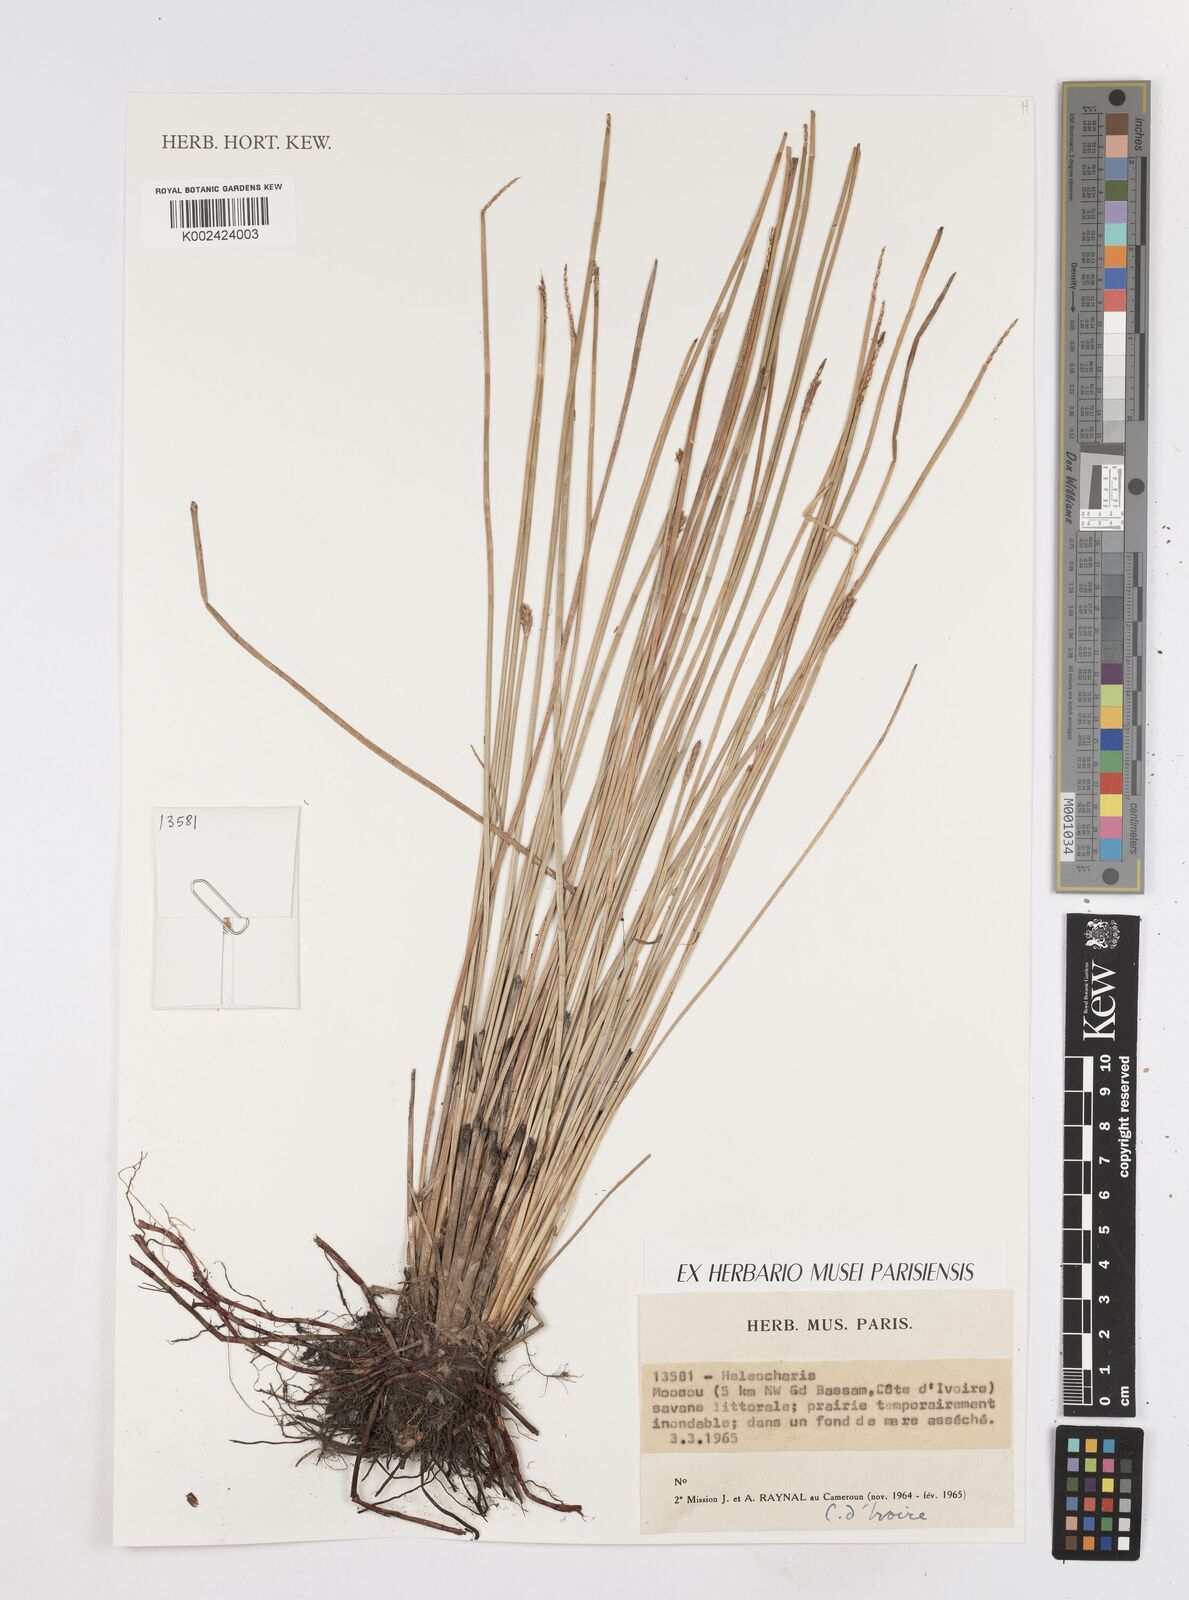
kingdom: Plantae
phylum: Tracheophyta
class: Liliopsida
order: Poales
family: Cyperaceae
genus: Eleocharis
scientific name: Eleocharis
